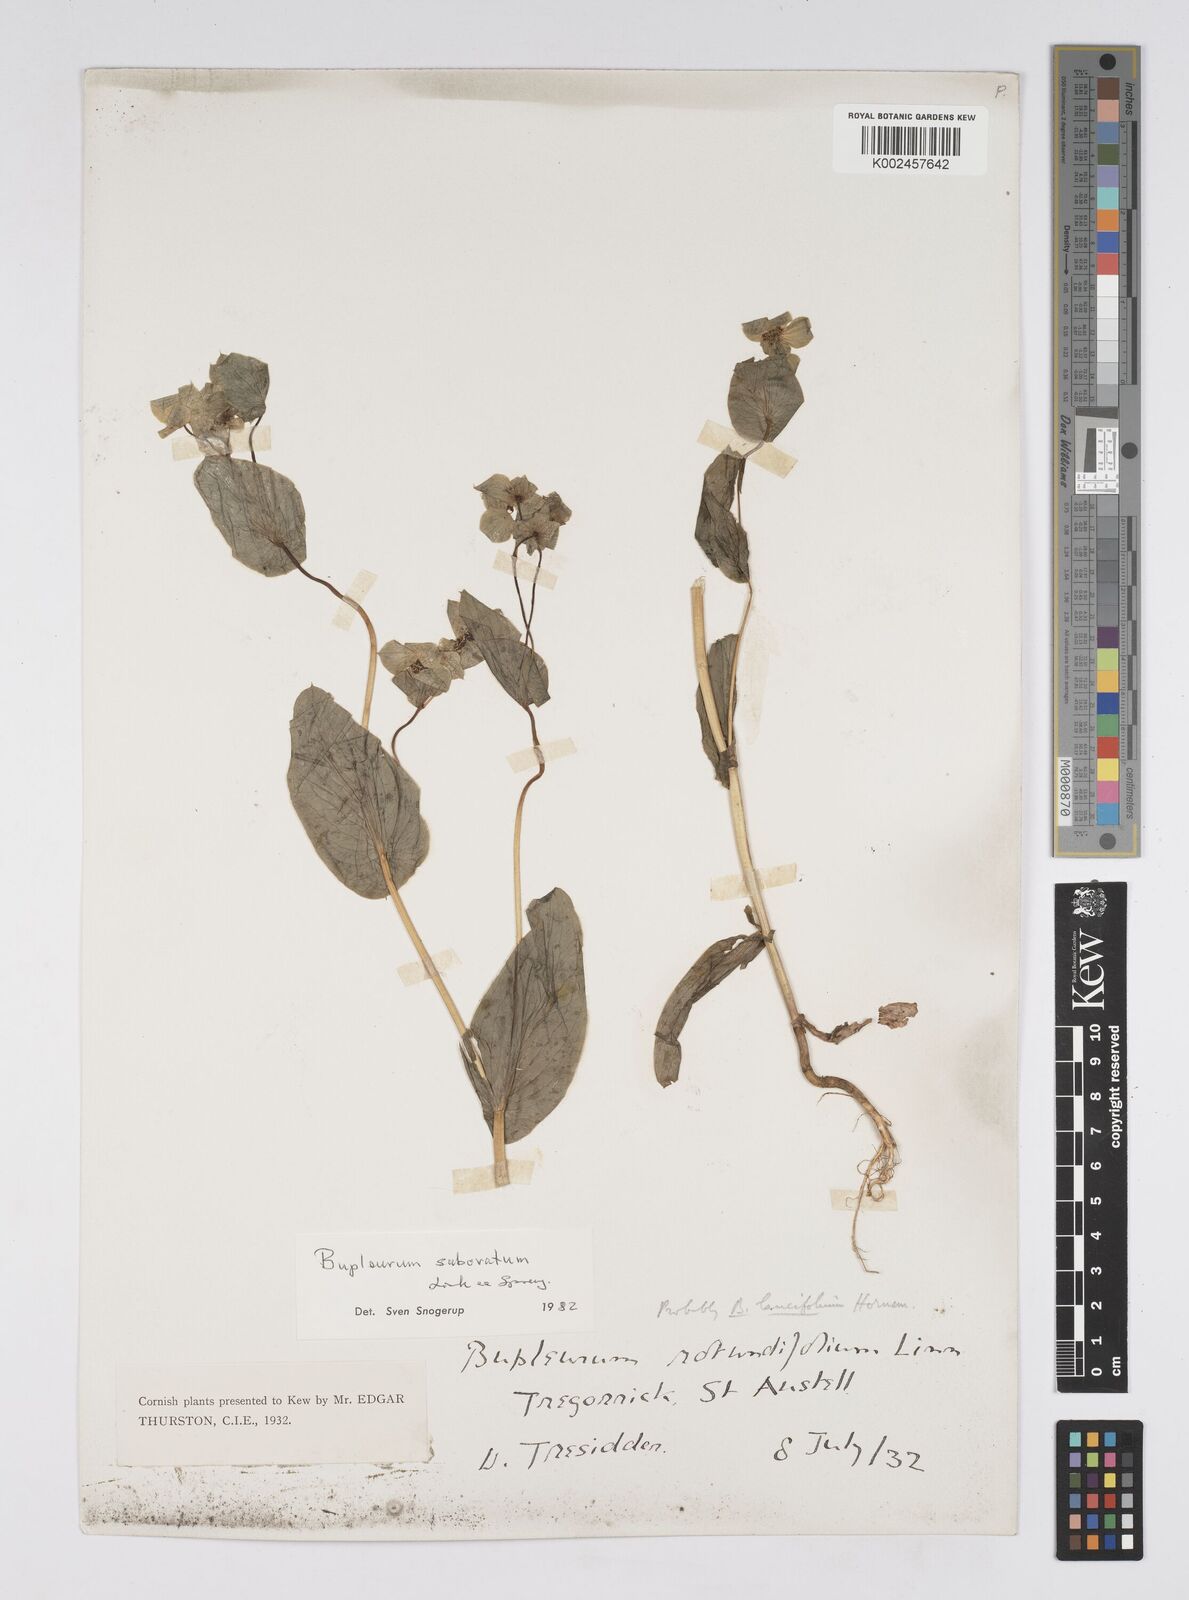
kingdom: Plantae
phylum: Tracheophyta
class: Magnoliopsida
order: Apiales
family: Apiaceae
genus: Bupleurum
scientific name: Bupleurum subovatum
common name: False thorow-wax
